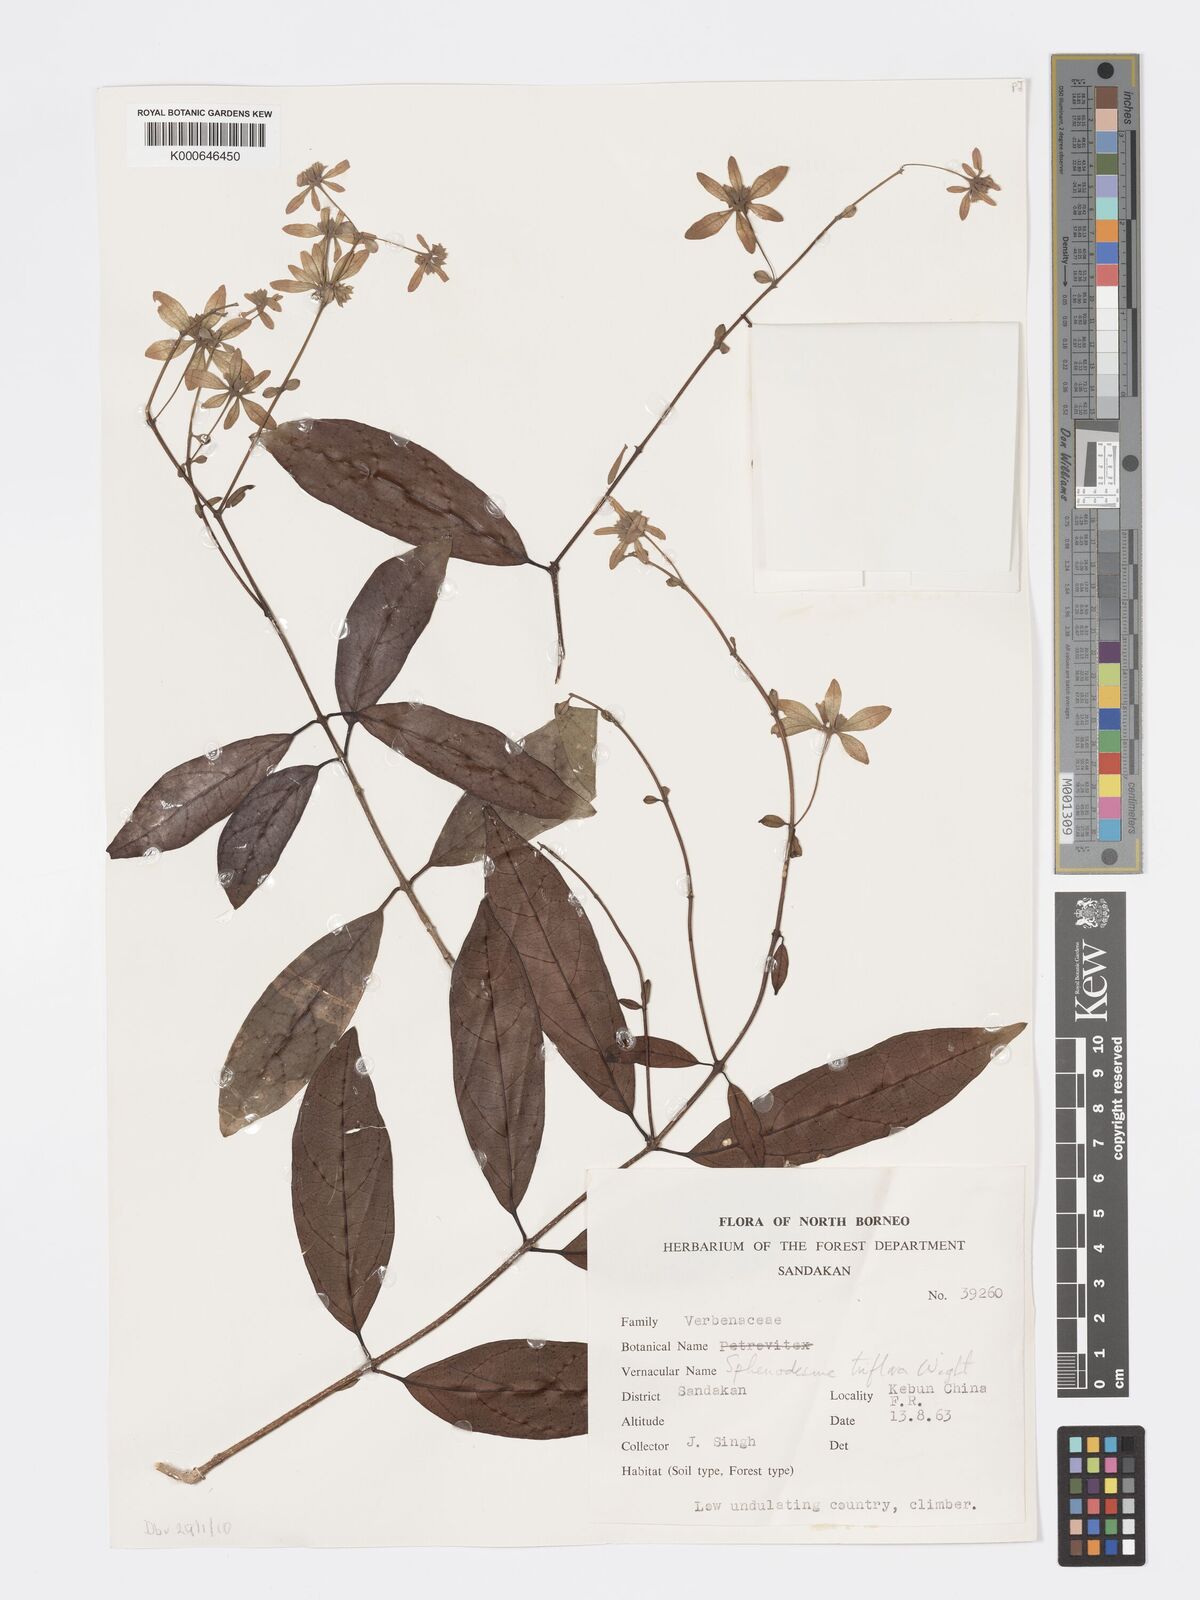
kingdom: Plantae
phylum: Tracheophyta
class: Magnoliopsida
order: Lamiales
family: Lamiaceae
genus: Sphenodesme
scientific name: Sphenodesme
